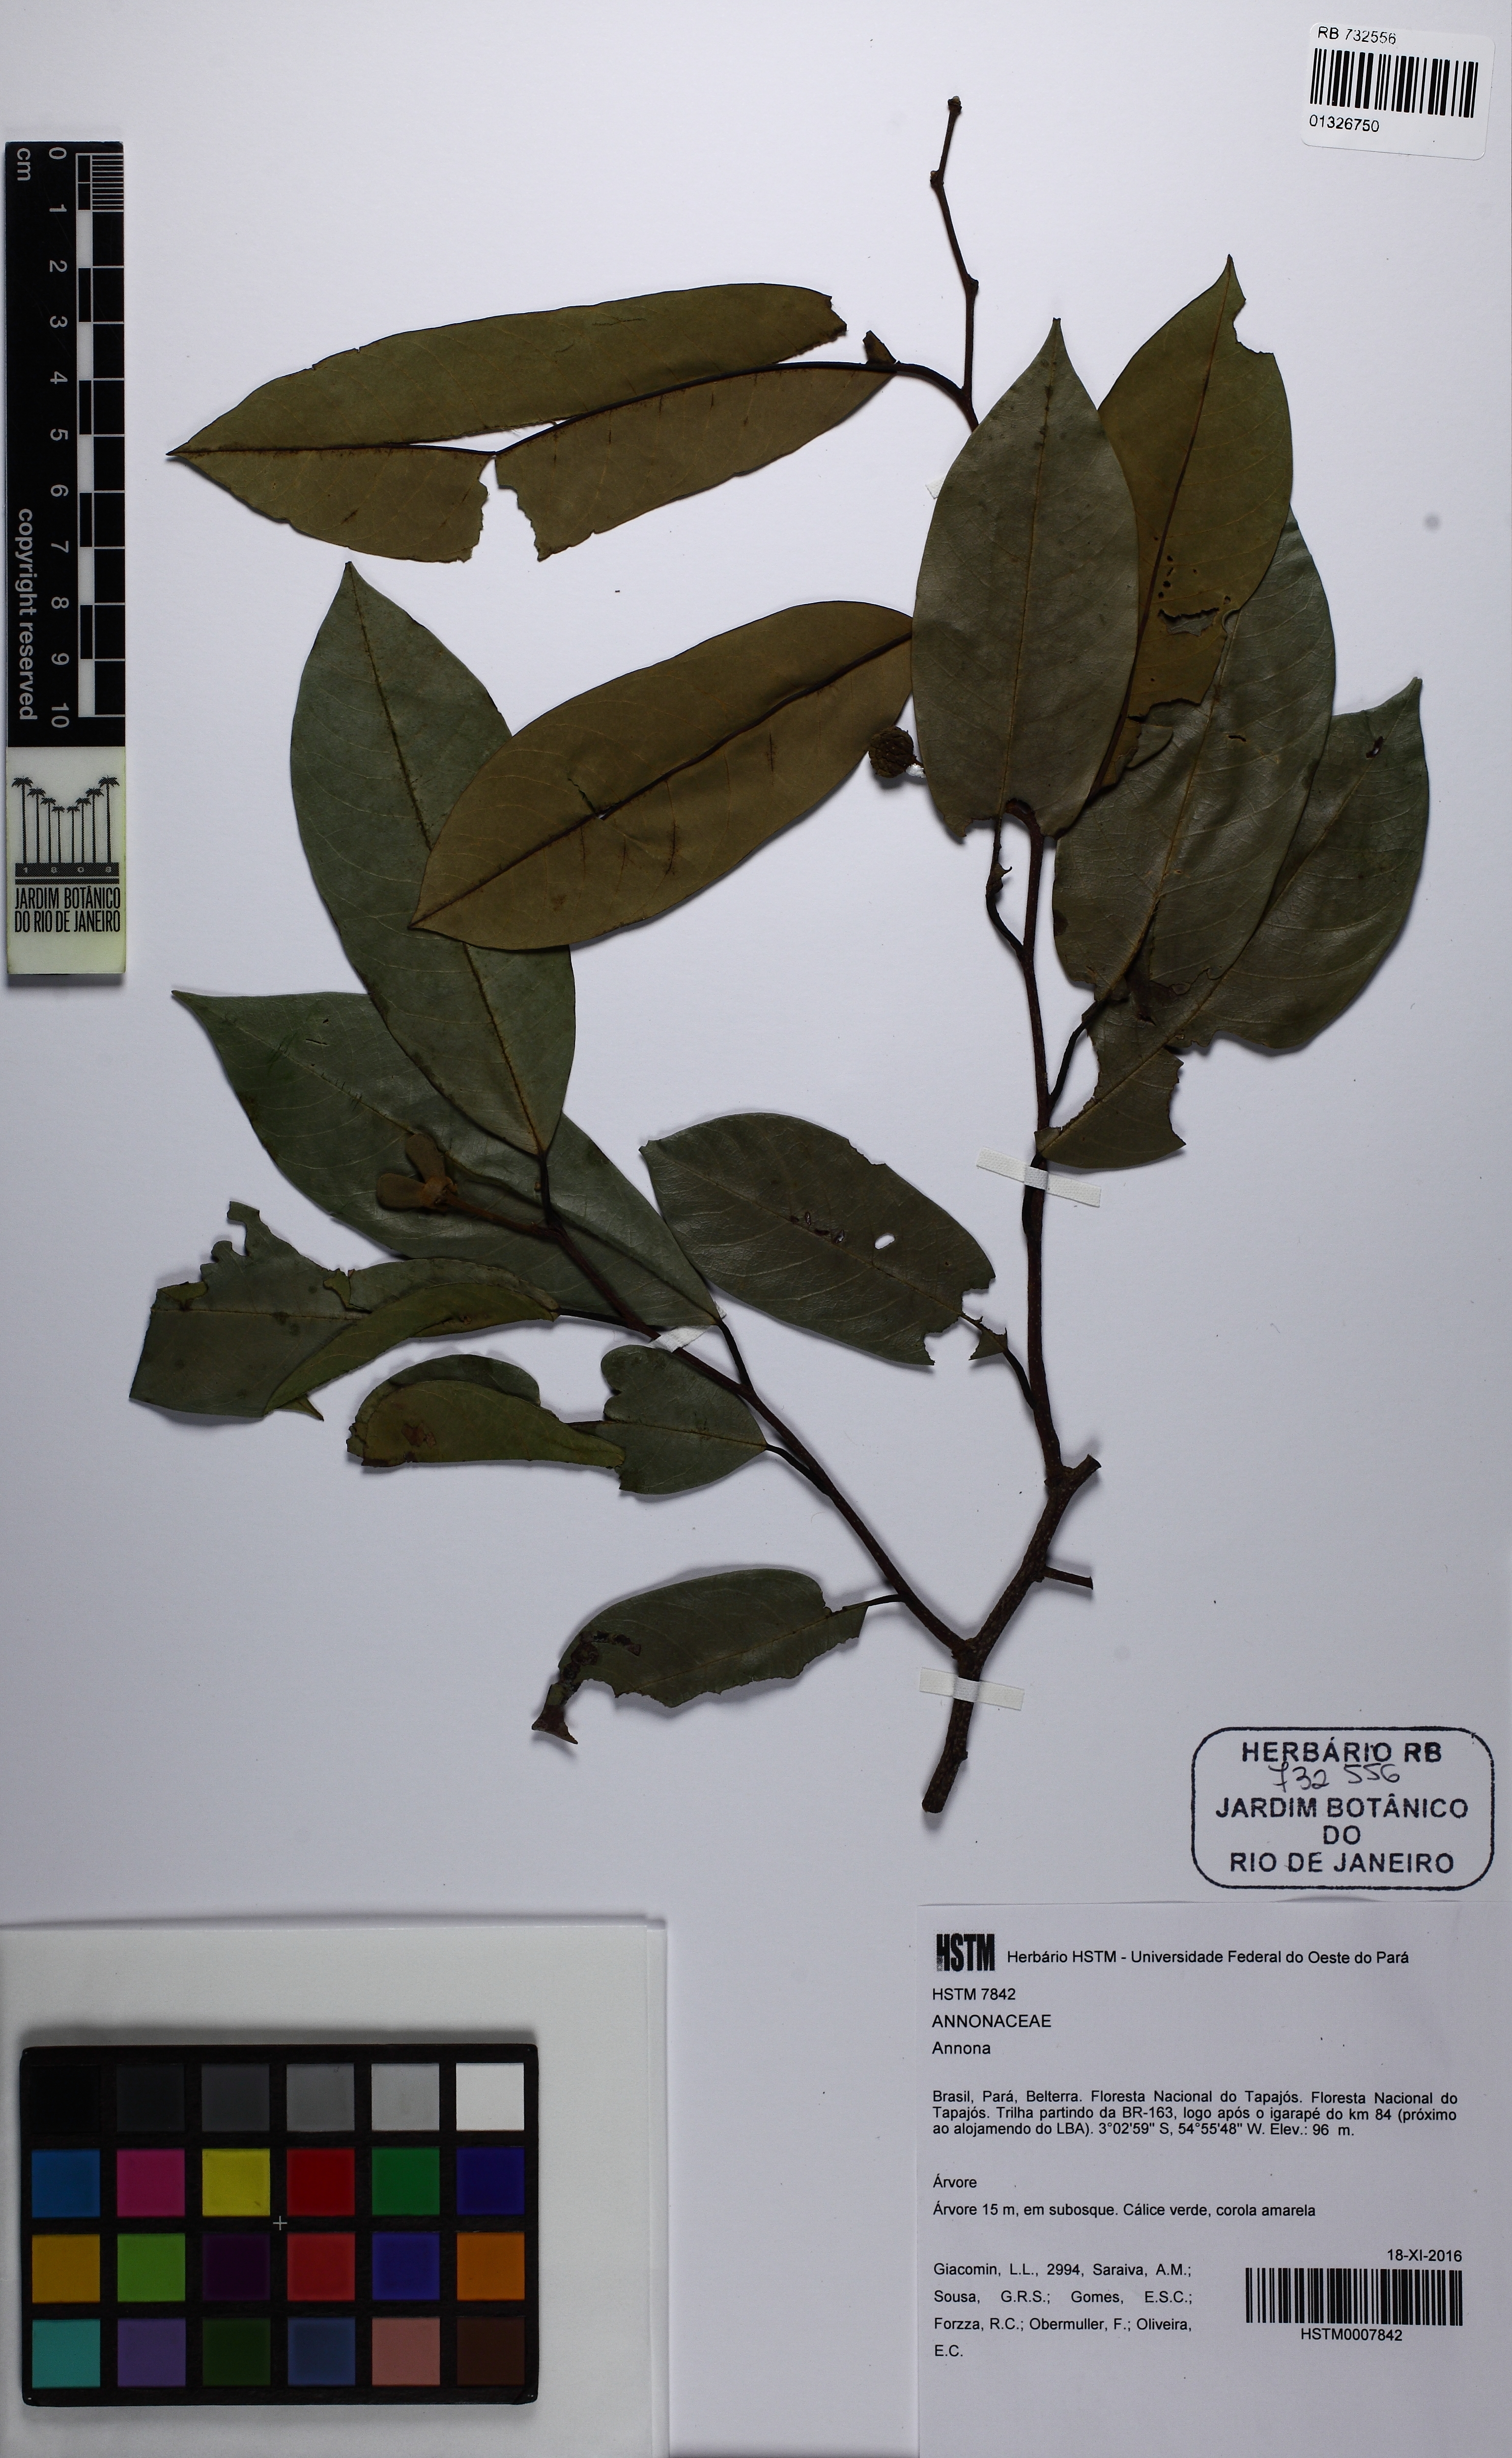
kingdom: Plantae
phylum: Tracheophyta
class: Magnoliopsida
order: Magnoliales
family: Annonaceae
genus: Annona
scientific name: Annona exsucca
